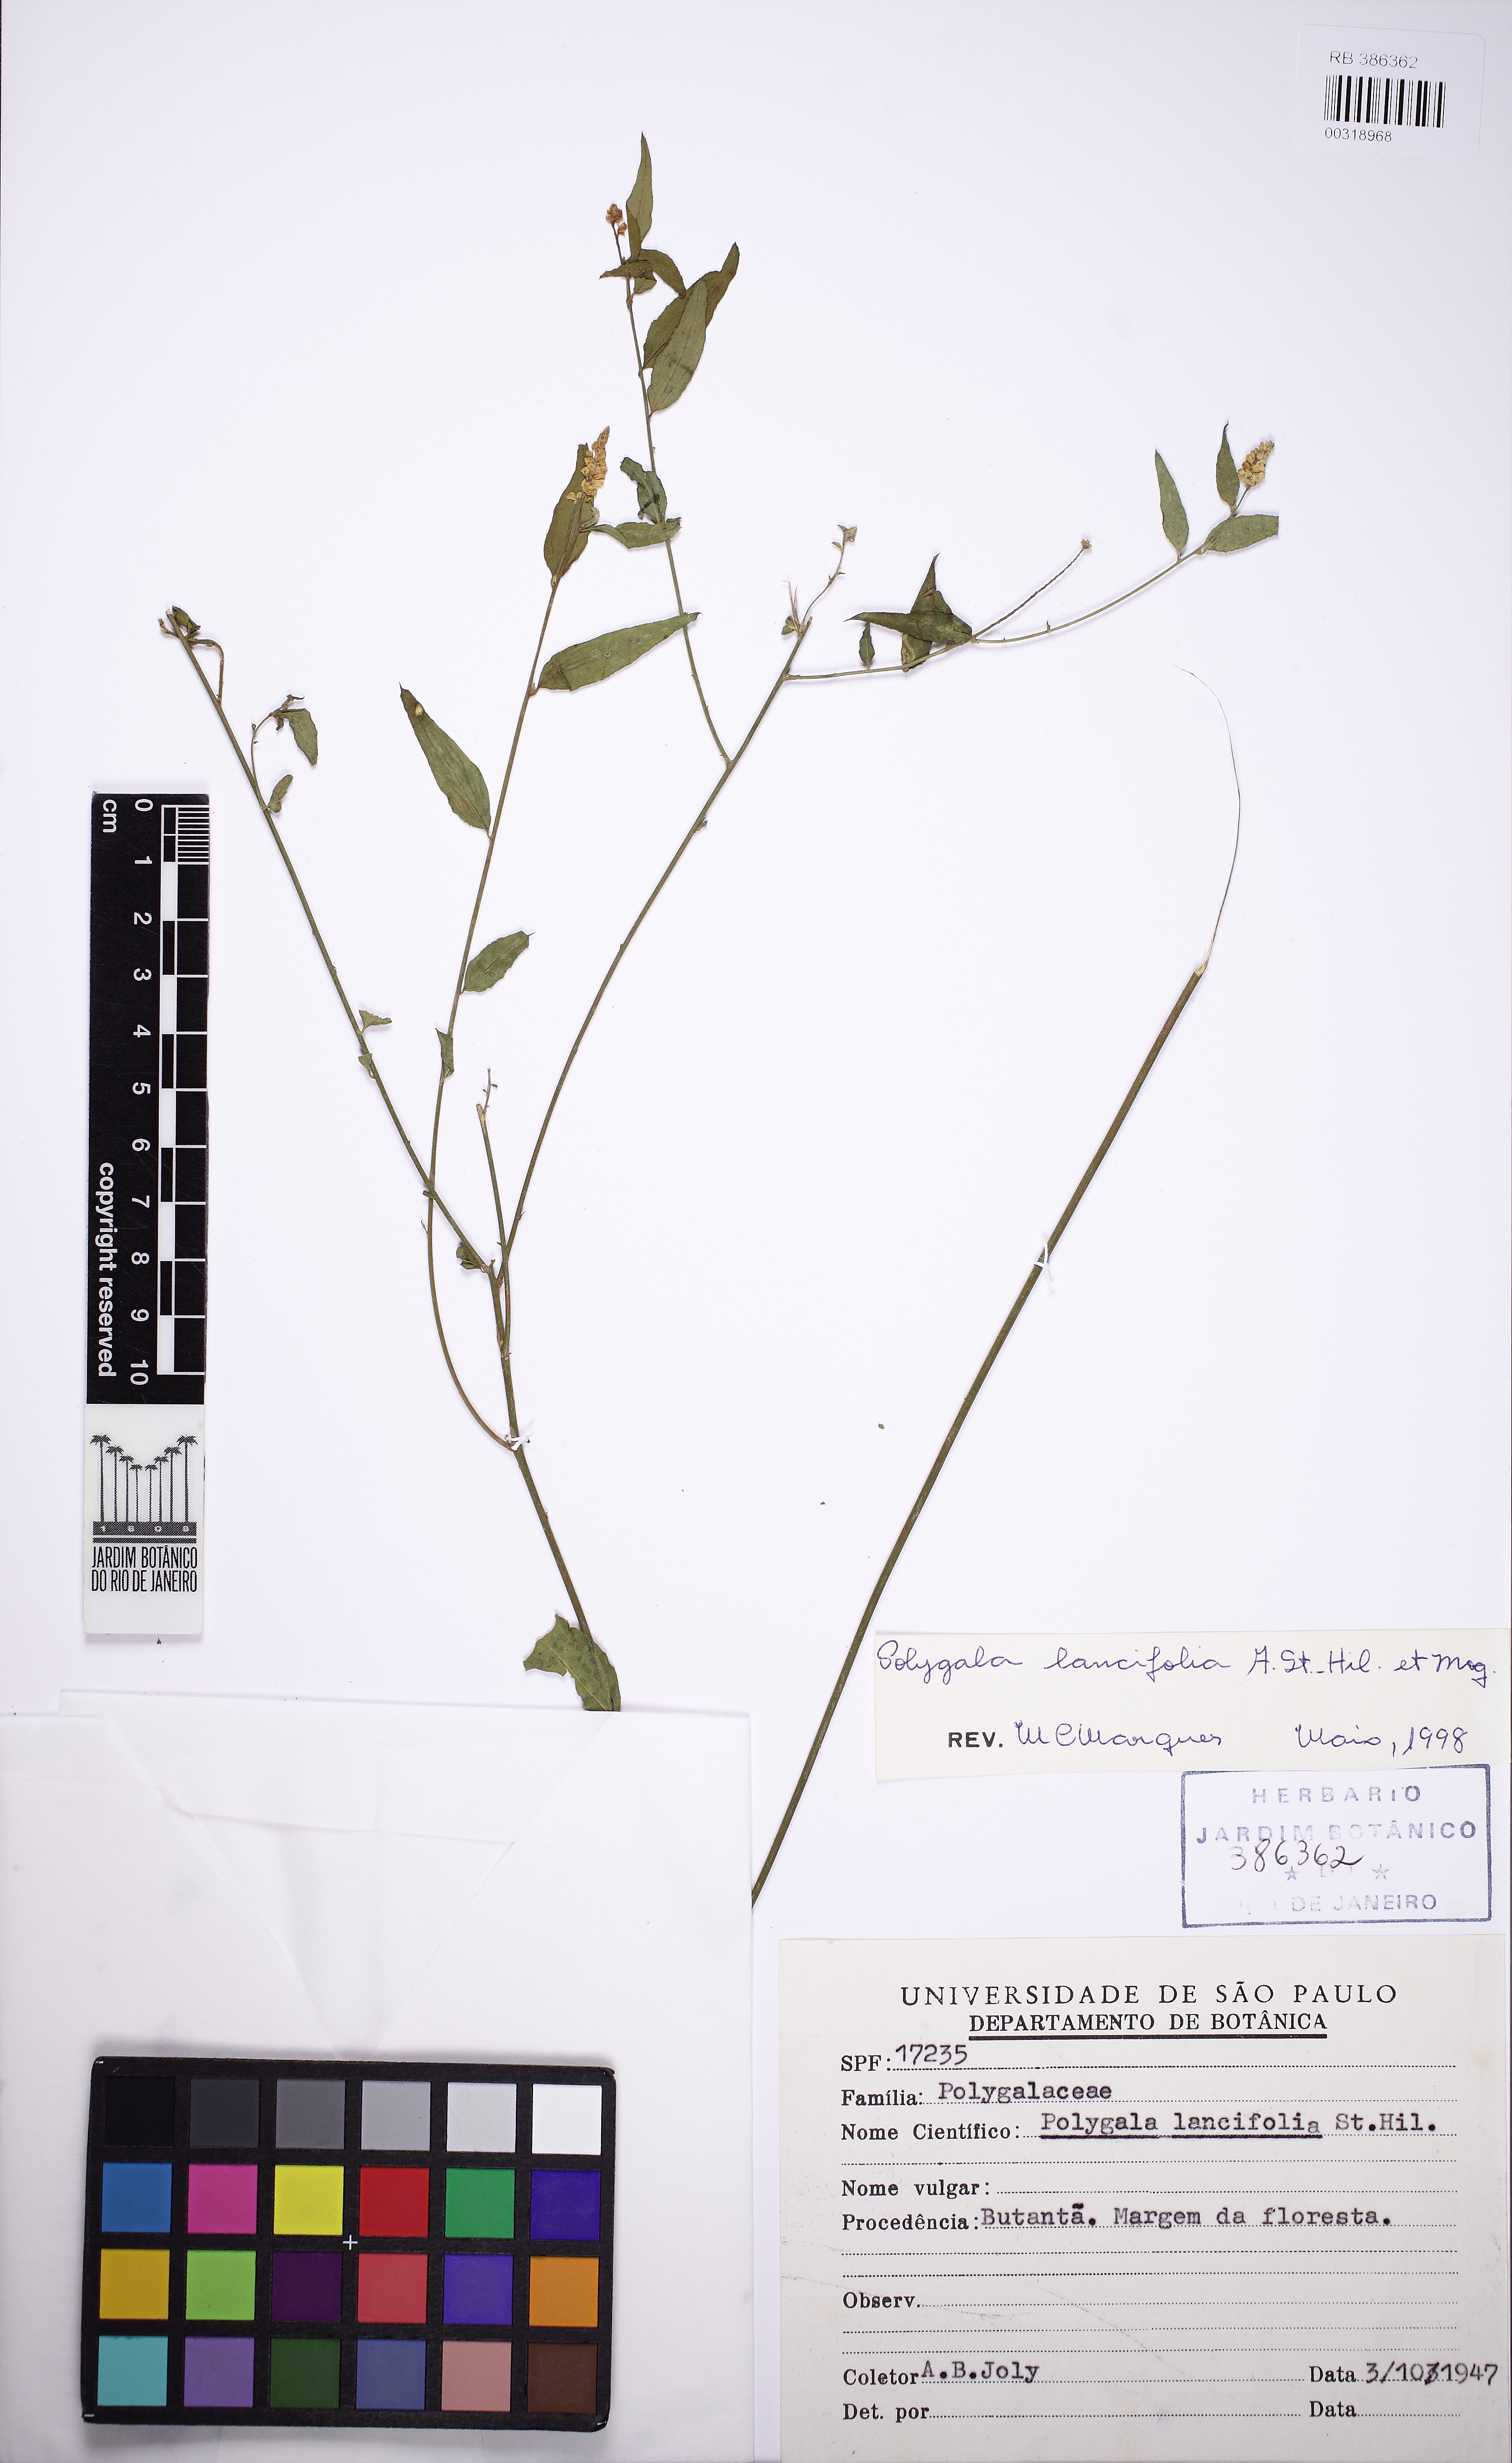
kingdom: Plantae
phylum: Tracheophyta
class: Magnoliopsida
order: Fabales
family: Polygalaceae
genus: Polygala
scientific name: Polygala lancifolia
